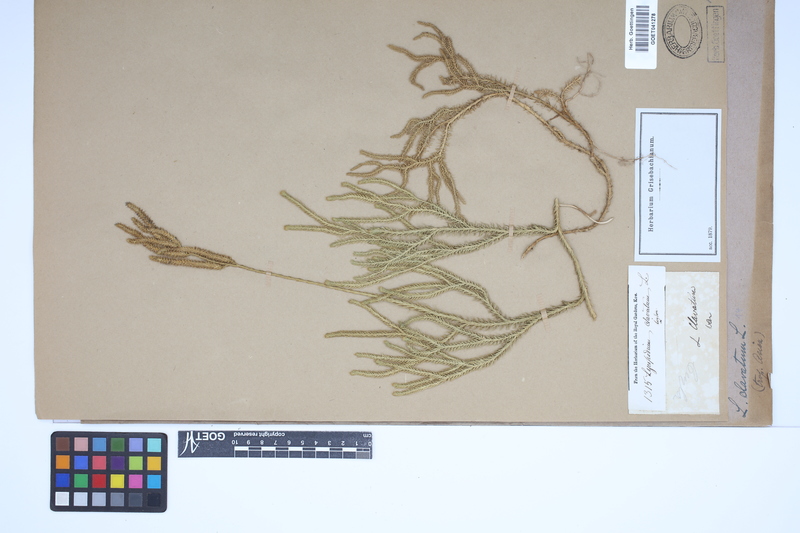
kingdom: Plantae
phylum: Tracheophyta
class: Lycopodiopsida
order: Lycopodiales
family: Lycopodiaceae
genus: Lycopodium
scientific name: Lycopodium clavatum
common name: Stag's-horn clubmoss
